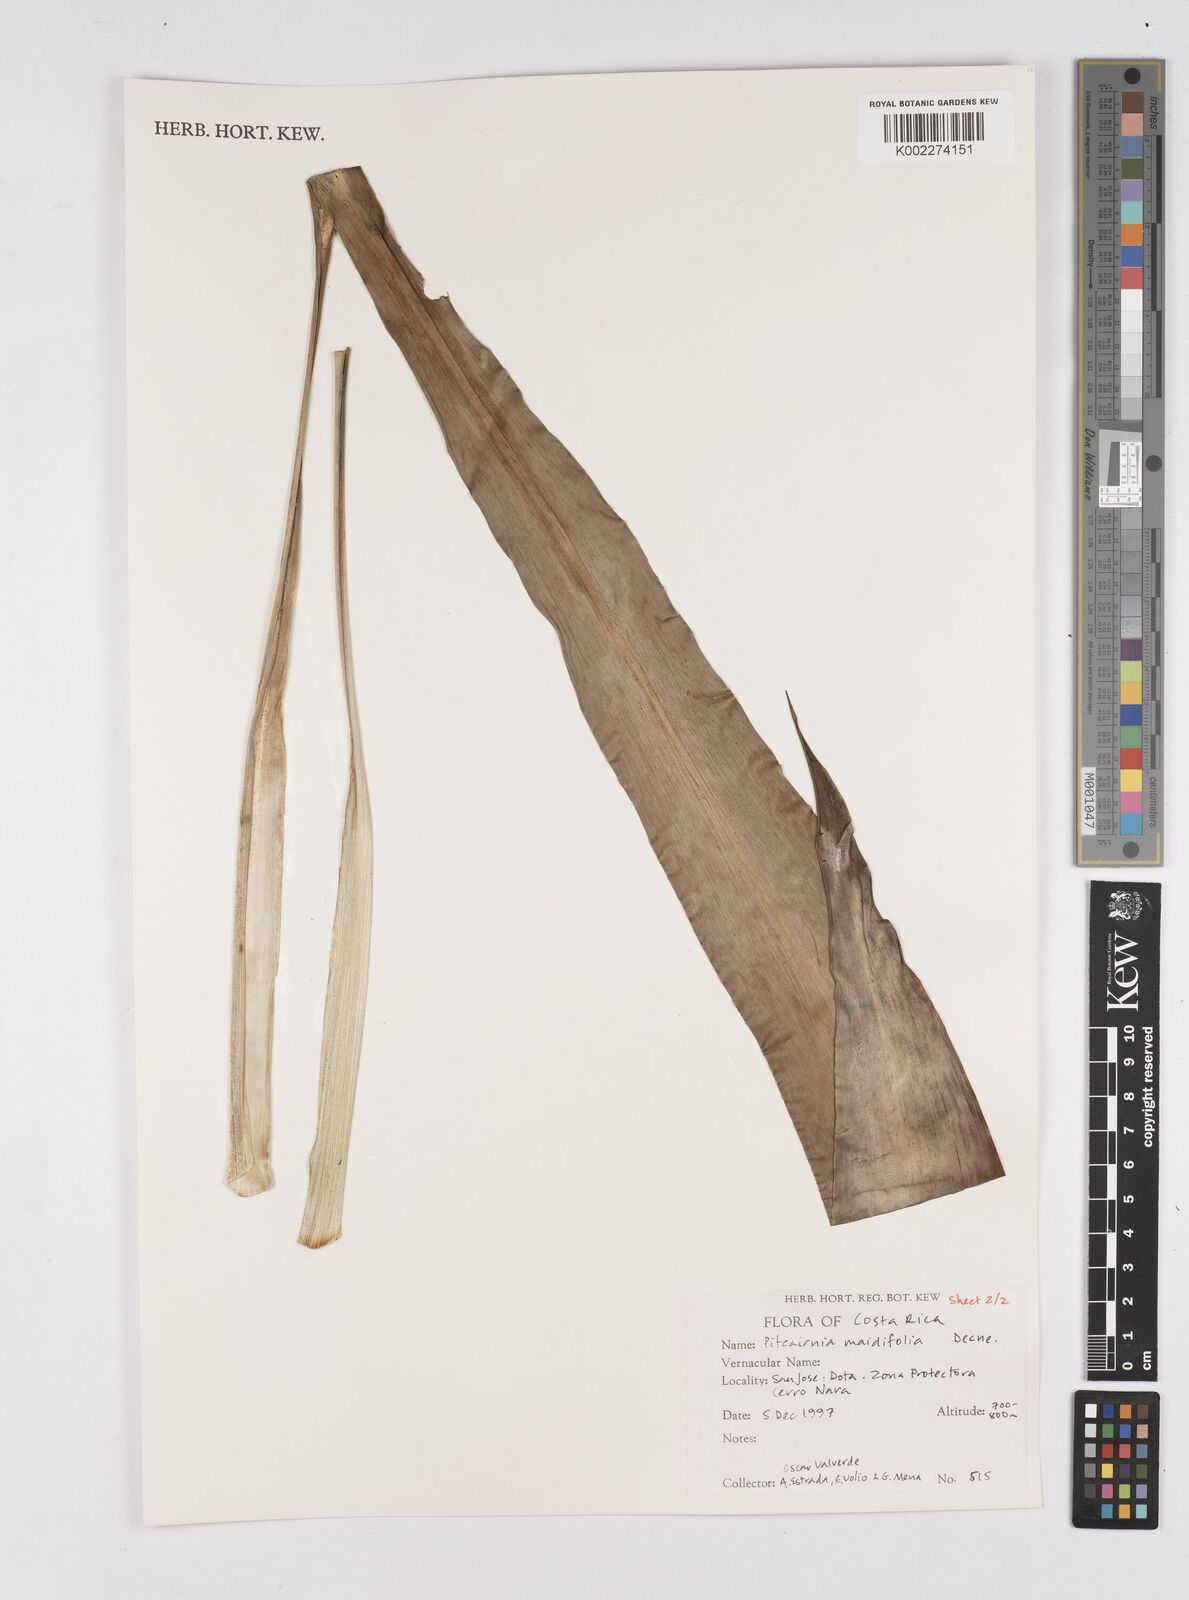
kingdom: Plantae
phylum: Tracheophyta
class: Liliopsida
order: Poales
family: Bromeliaceae
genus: Pitcairnia
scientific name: Pitcairnia maidifolia
